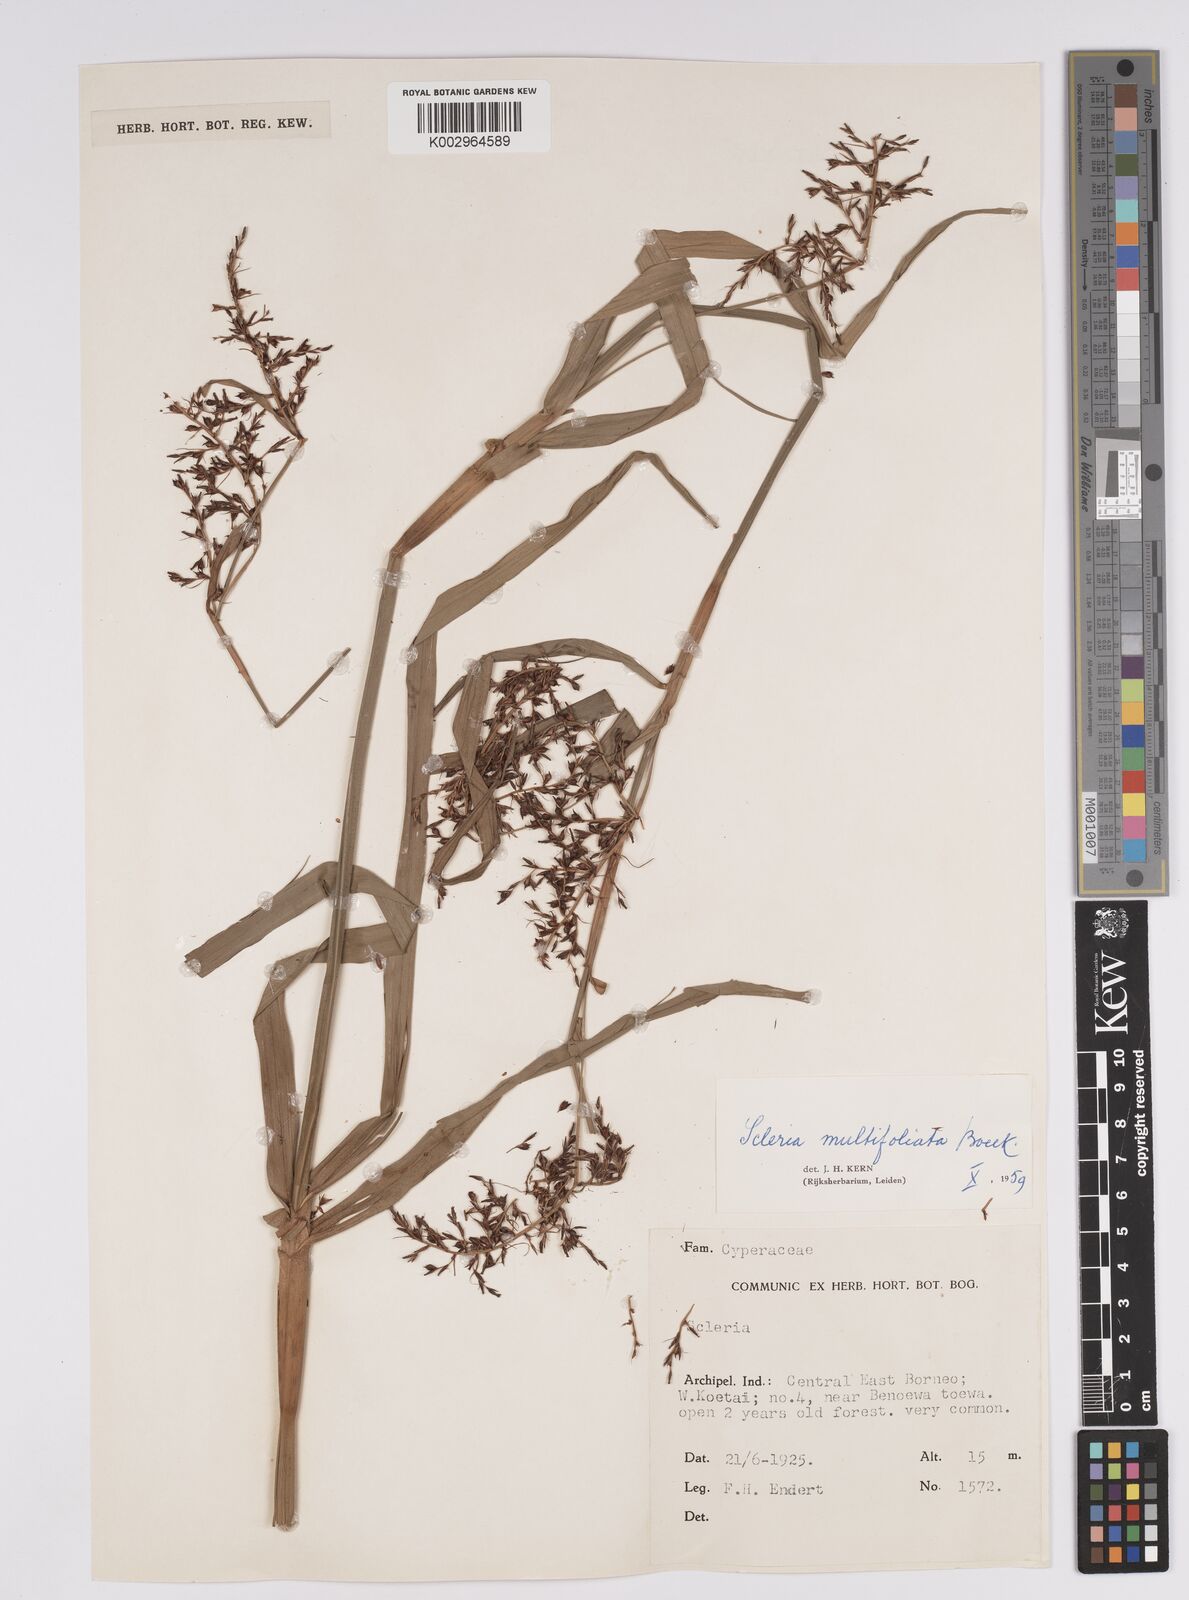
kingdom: Plantae
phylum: Tracheophyta
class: Liliopsida
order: Poales
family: Cyperaceae
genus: Scleria
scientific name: Scleria purpurascens
